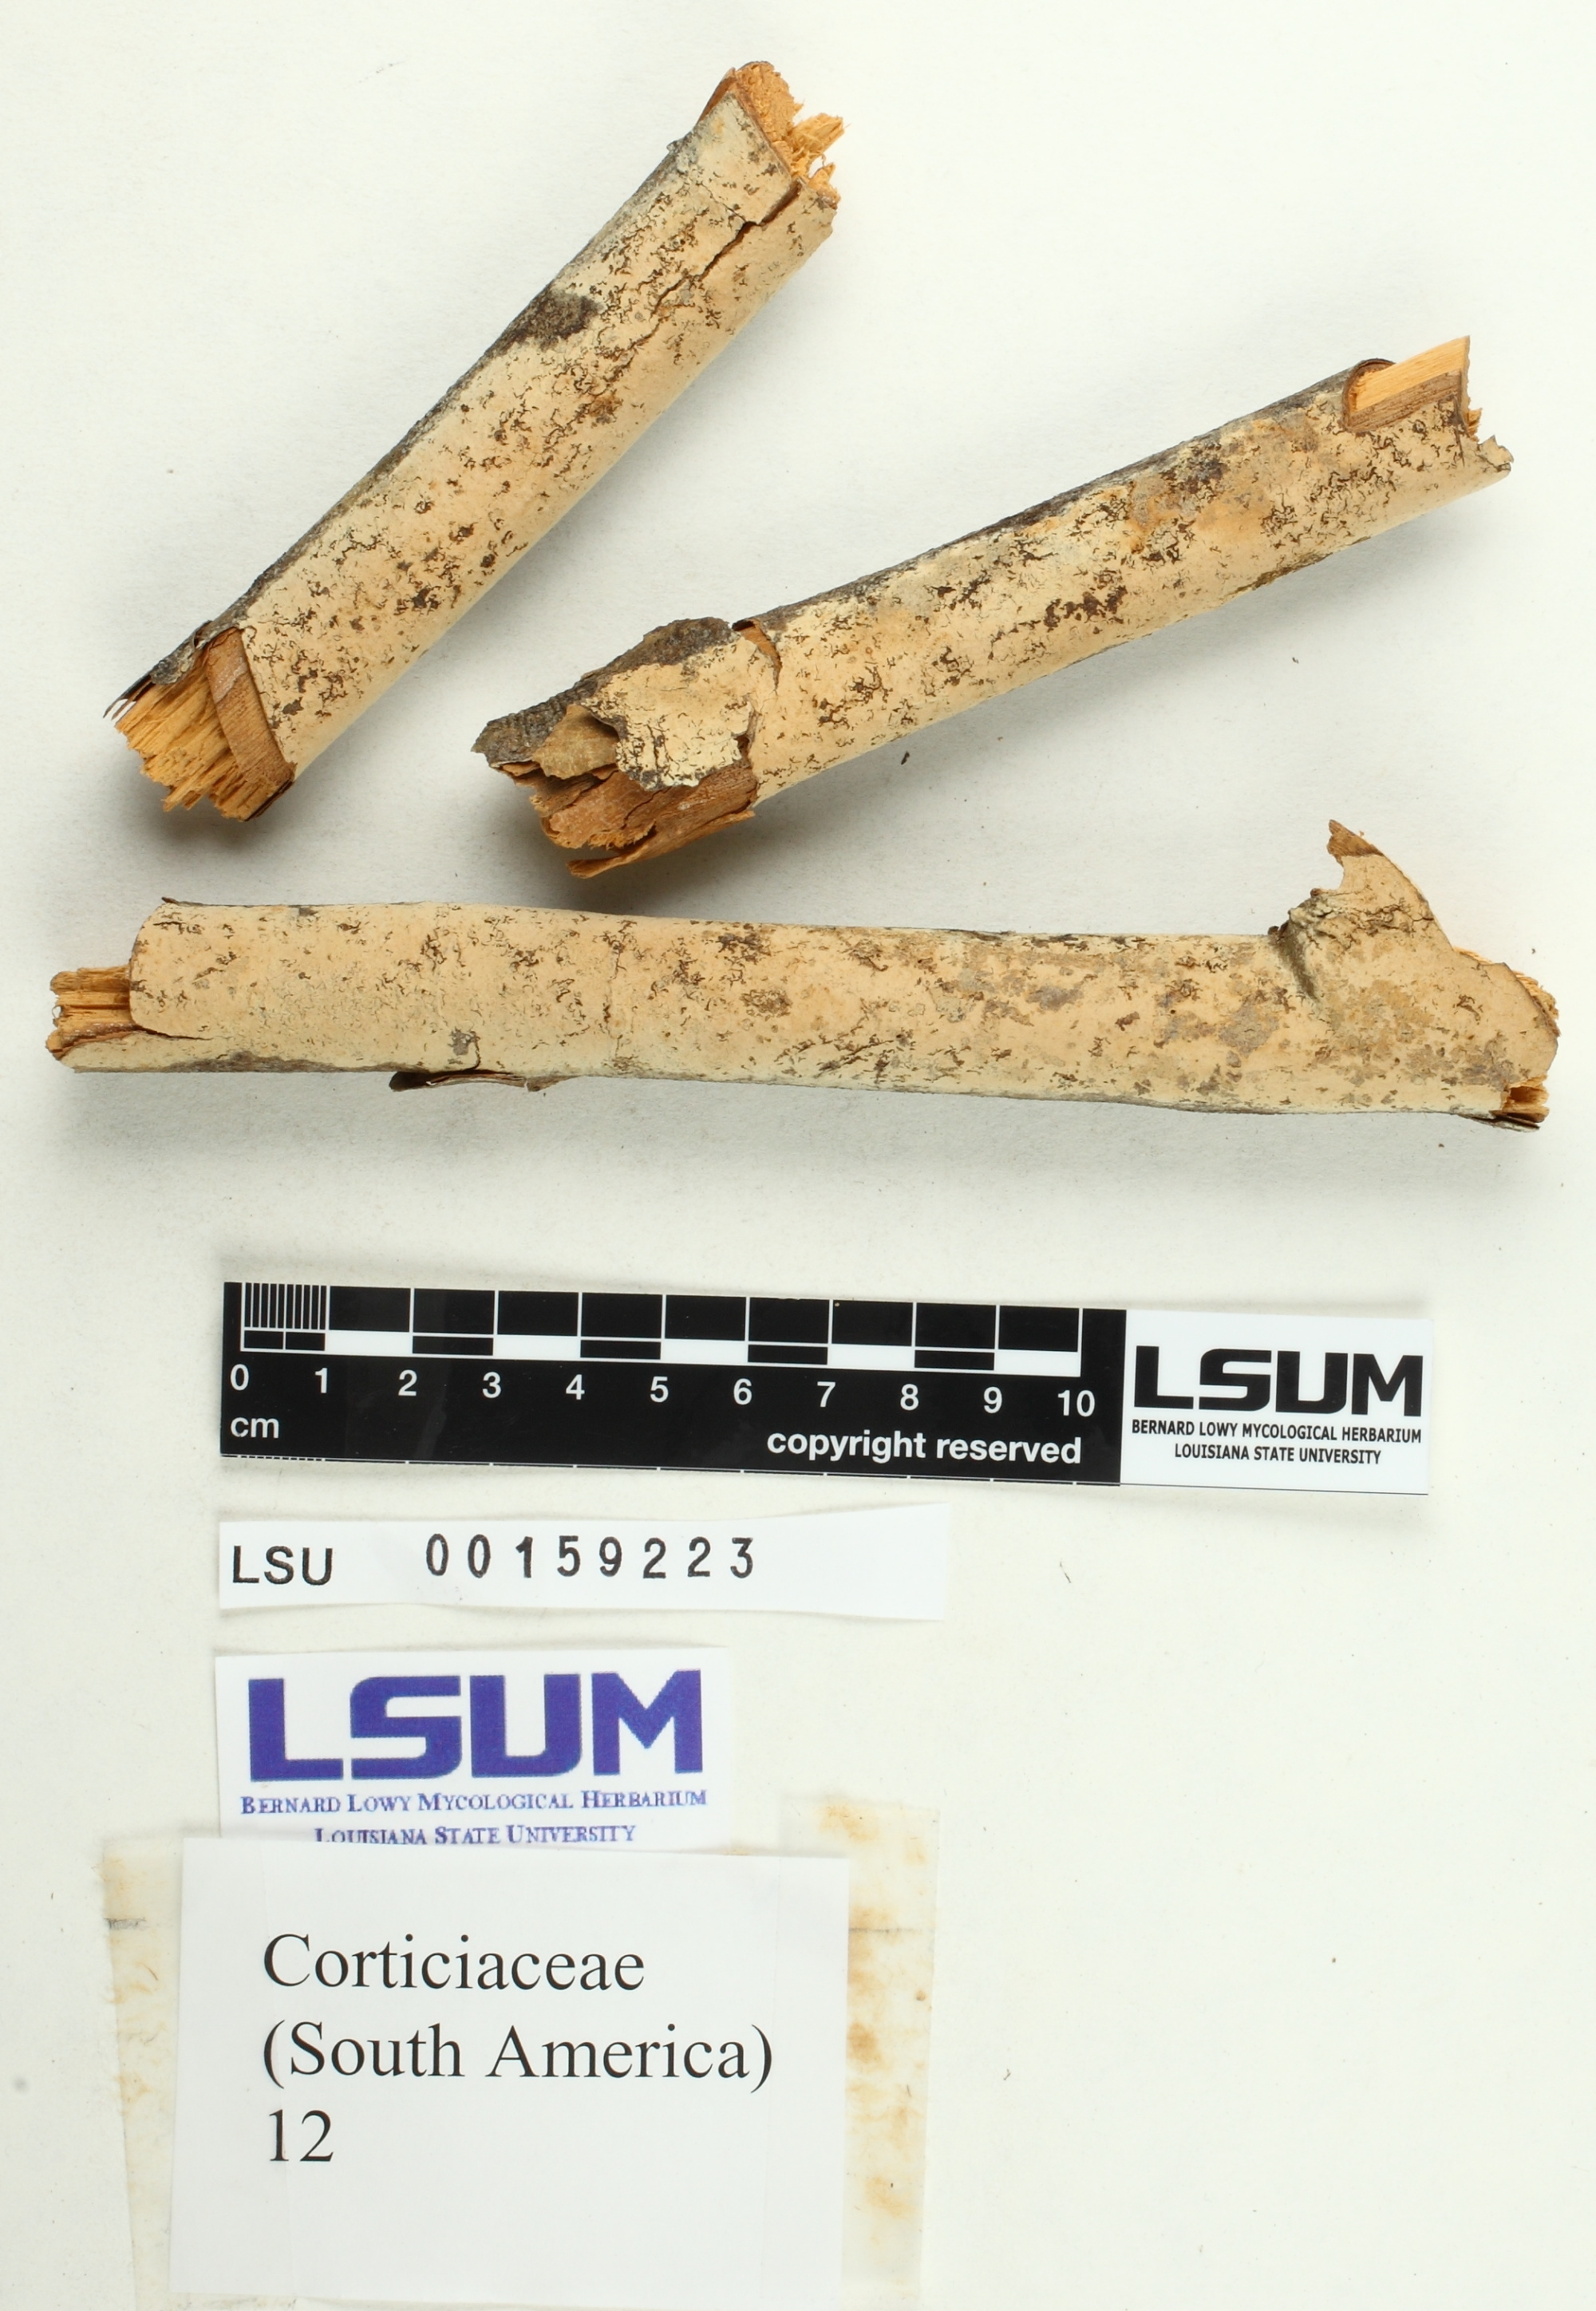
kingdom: Fungi
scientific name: Fungi
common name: Fungi
